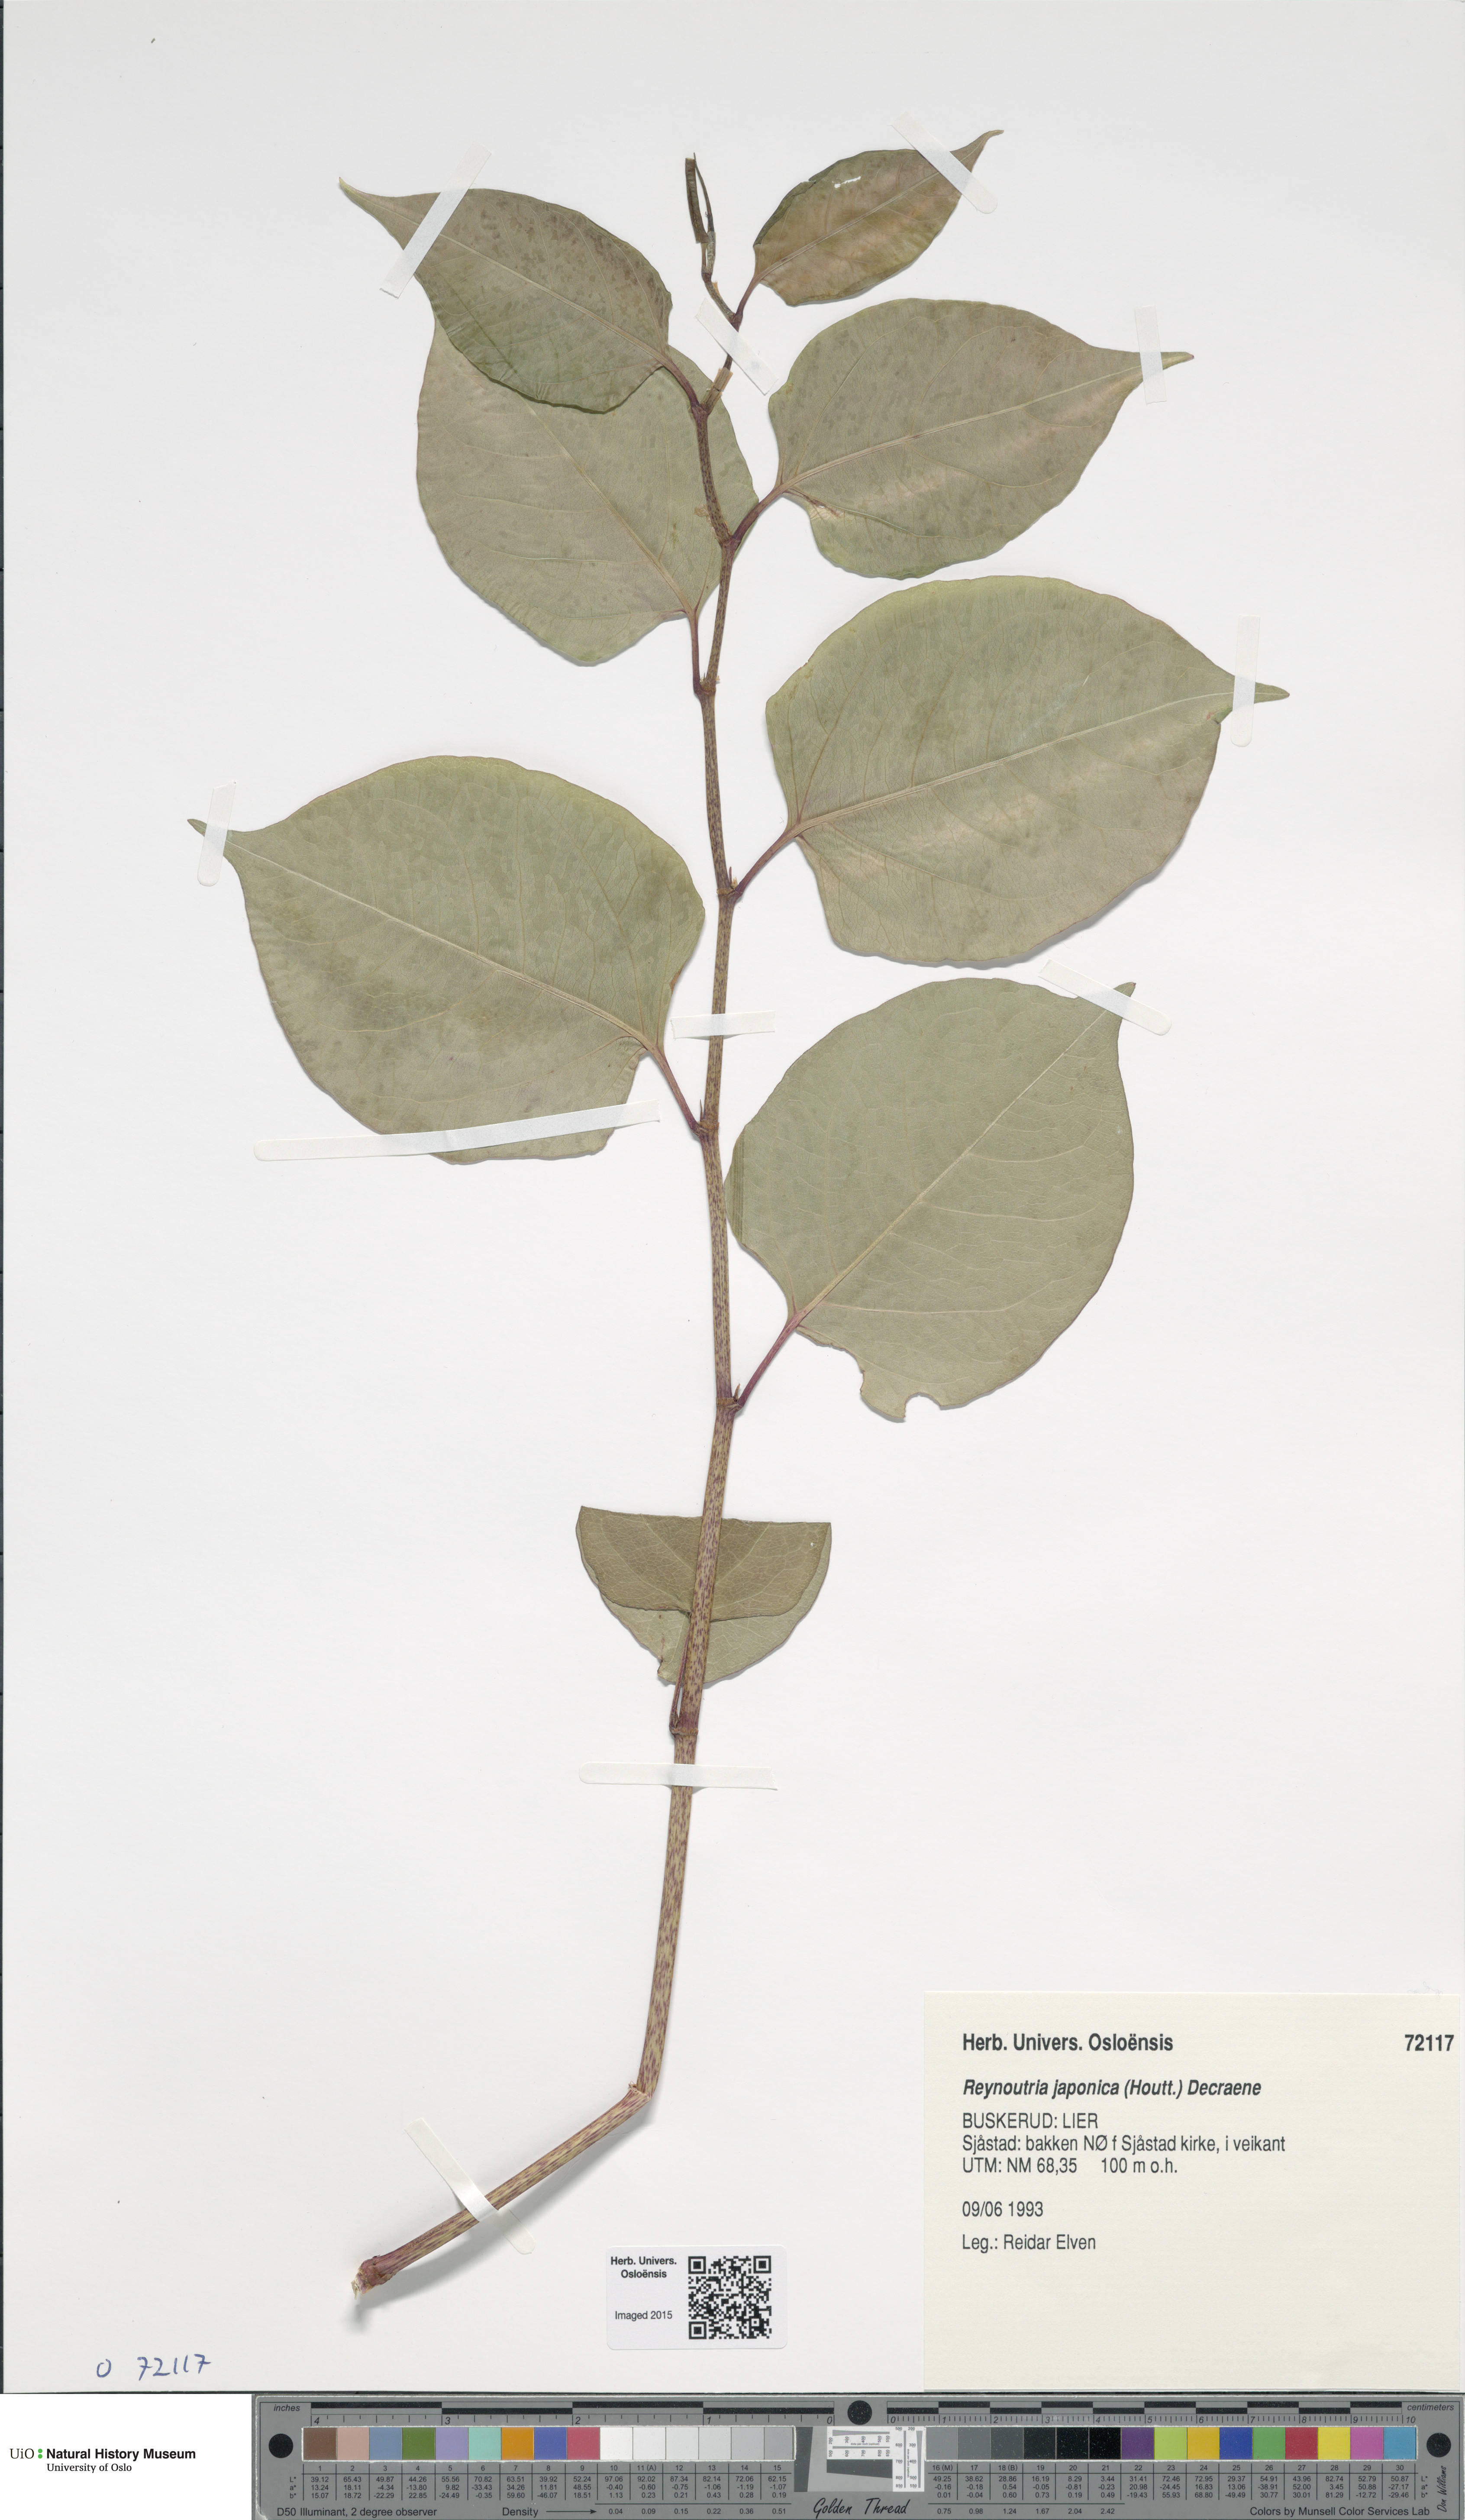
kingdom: Plantae
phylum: Tracheophyta
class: Magnoliopsida
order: Caryophyllales
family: Polygonaceae
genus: Reynoutria
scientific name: Reynoutria japonica
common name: Japanese knotweed
